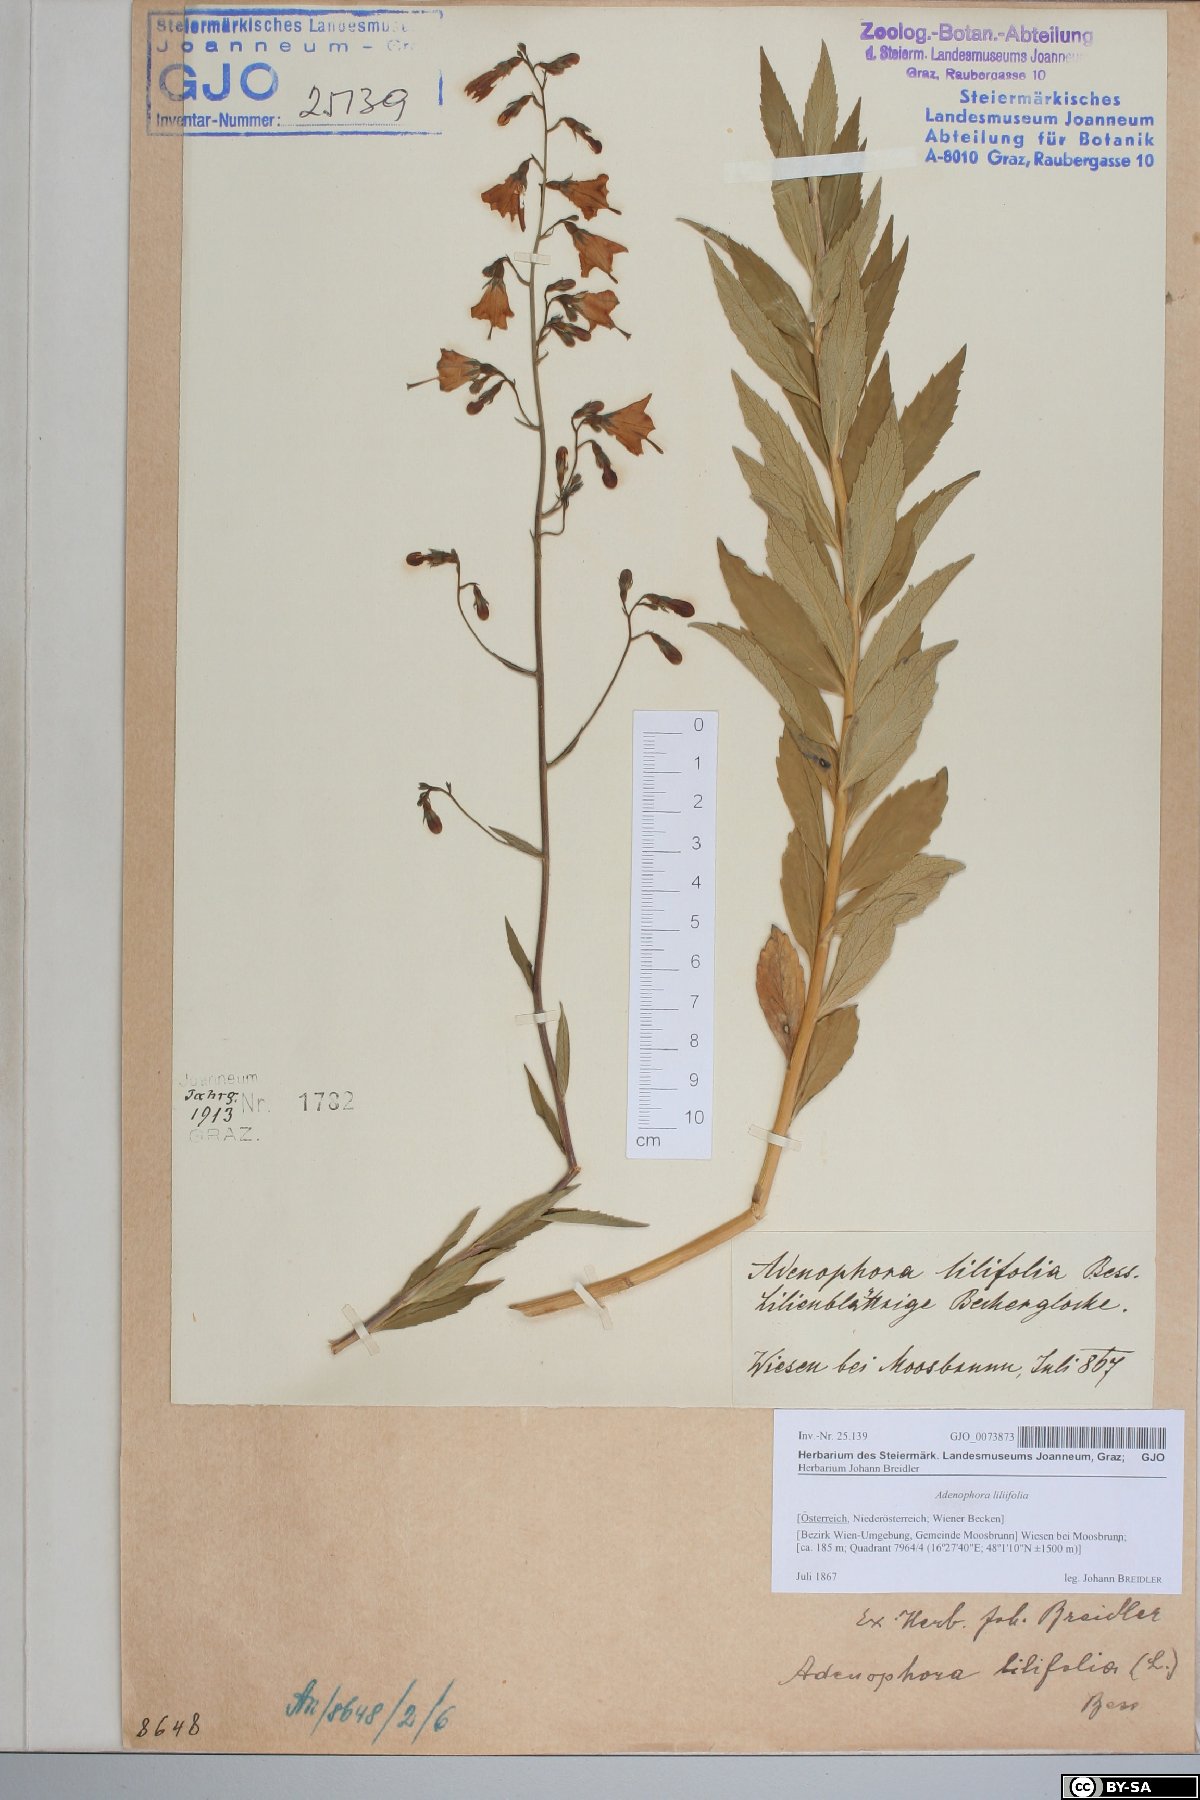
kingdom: Plantae
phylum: Tracheophyta
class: Magnoliopsida
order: Asterales
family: Campanulaceae
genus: Adenophora
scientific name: Adenophora liliifolia
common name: Lilyleaf ladybells
